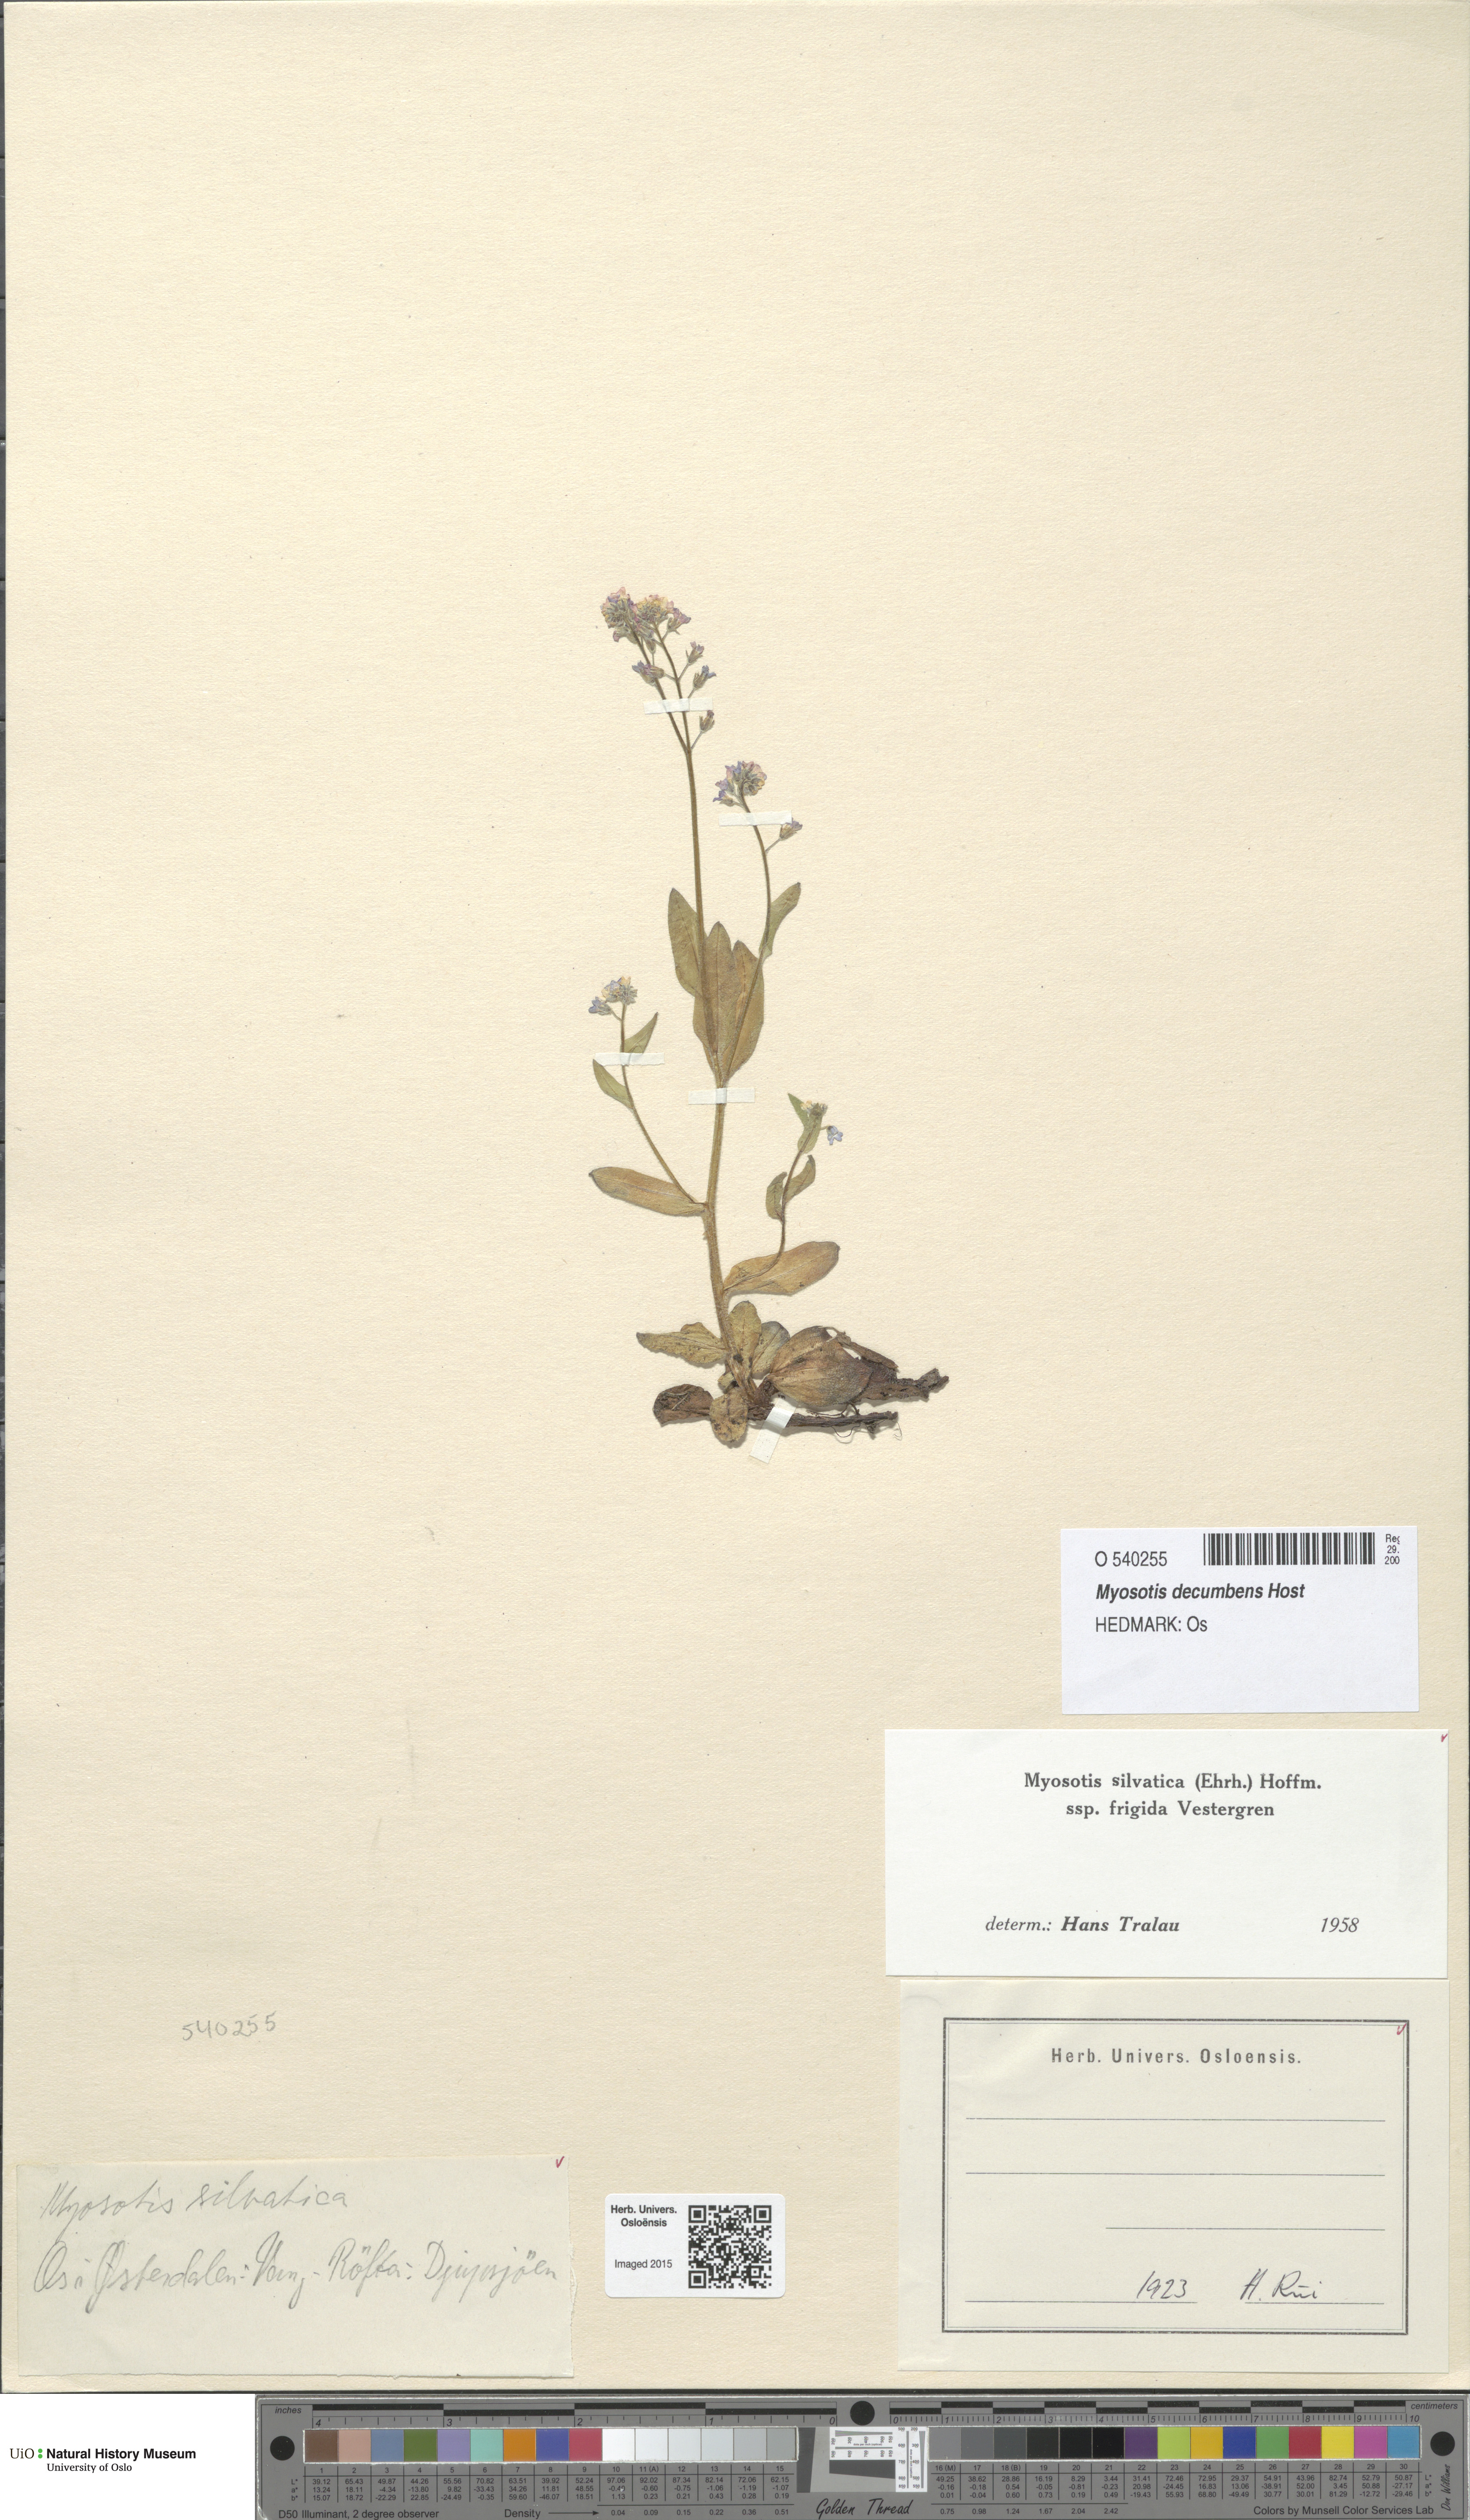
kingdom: Plantae
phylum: Tracheophyta
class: Magnoliopsida
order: Boraginales
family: Boraginaceae
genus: Myosotis
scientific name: Myosotis decumbens
